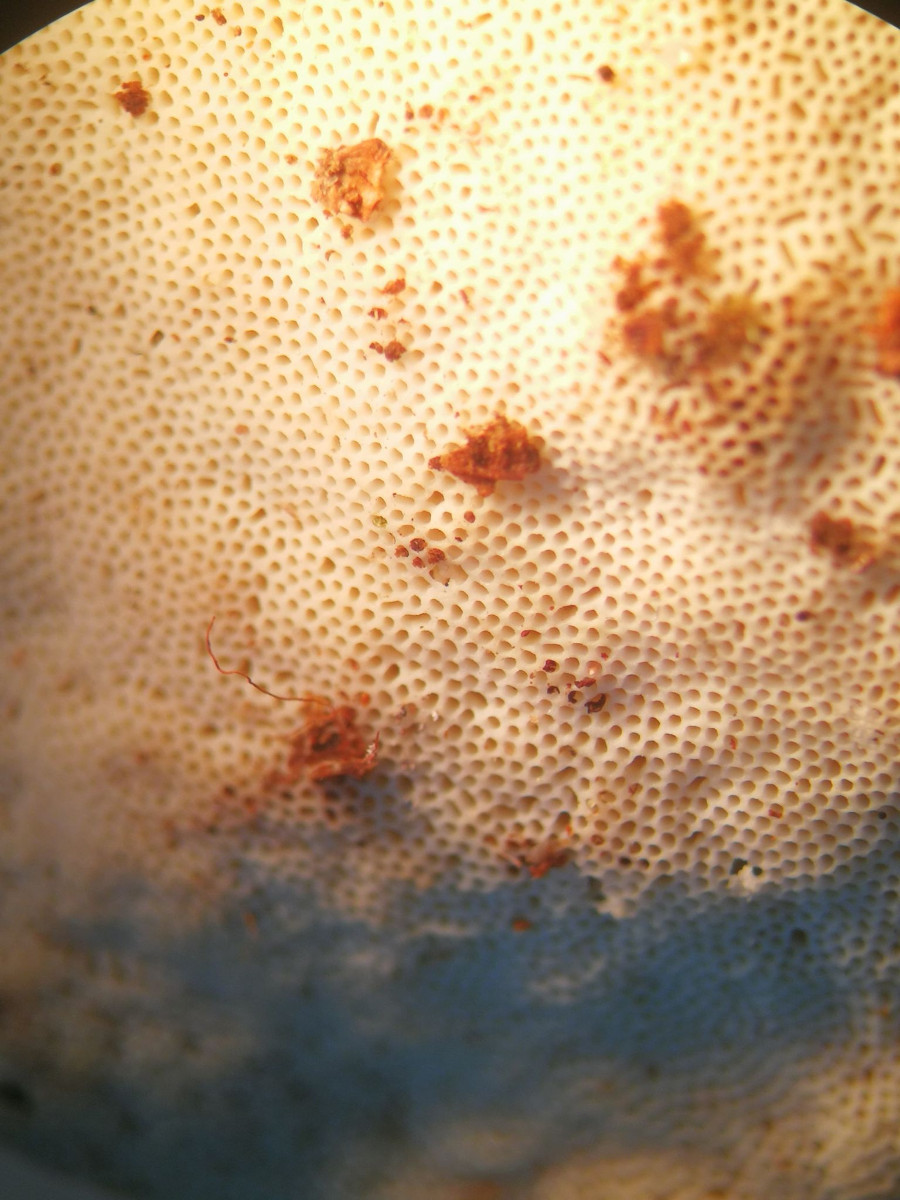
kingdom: Fungi
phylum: Basidiomycota
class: Agaricomycetes
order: Polyporales
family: Fomitopsidaceae
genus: Fomitopsis
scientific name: Fomitopsis pinicola
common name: randbæltet hovporesvamp
